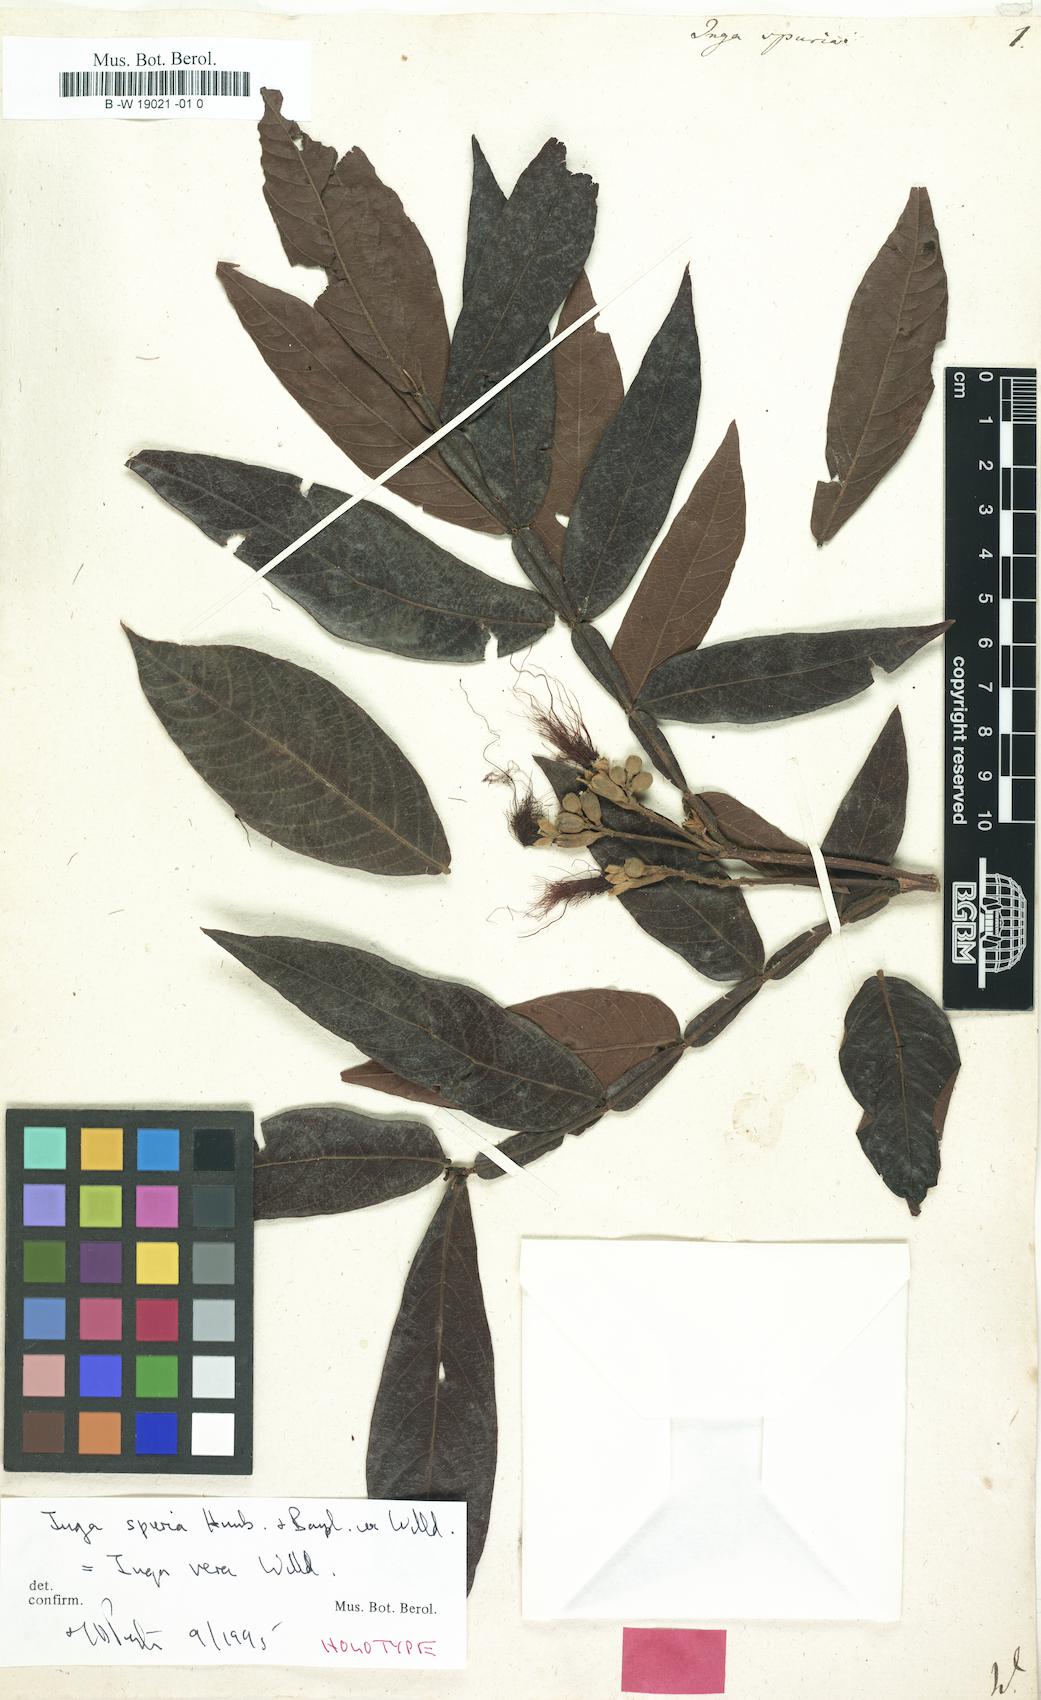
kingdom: Plantae
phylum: Tracheophyta
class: Magnoliopsida
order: Fabales
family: Fabaceae
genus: Inga
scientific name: Inga vera
